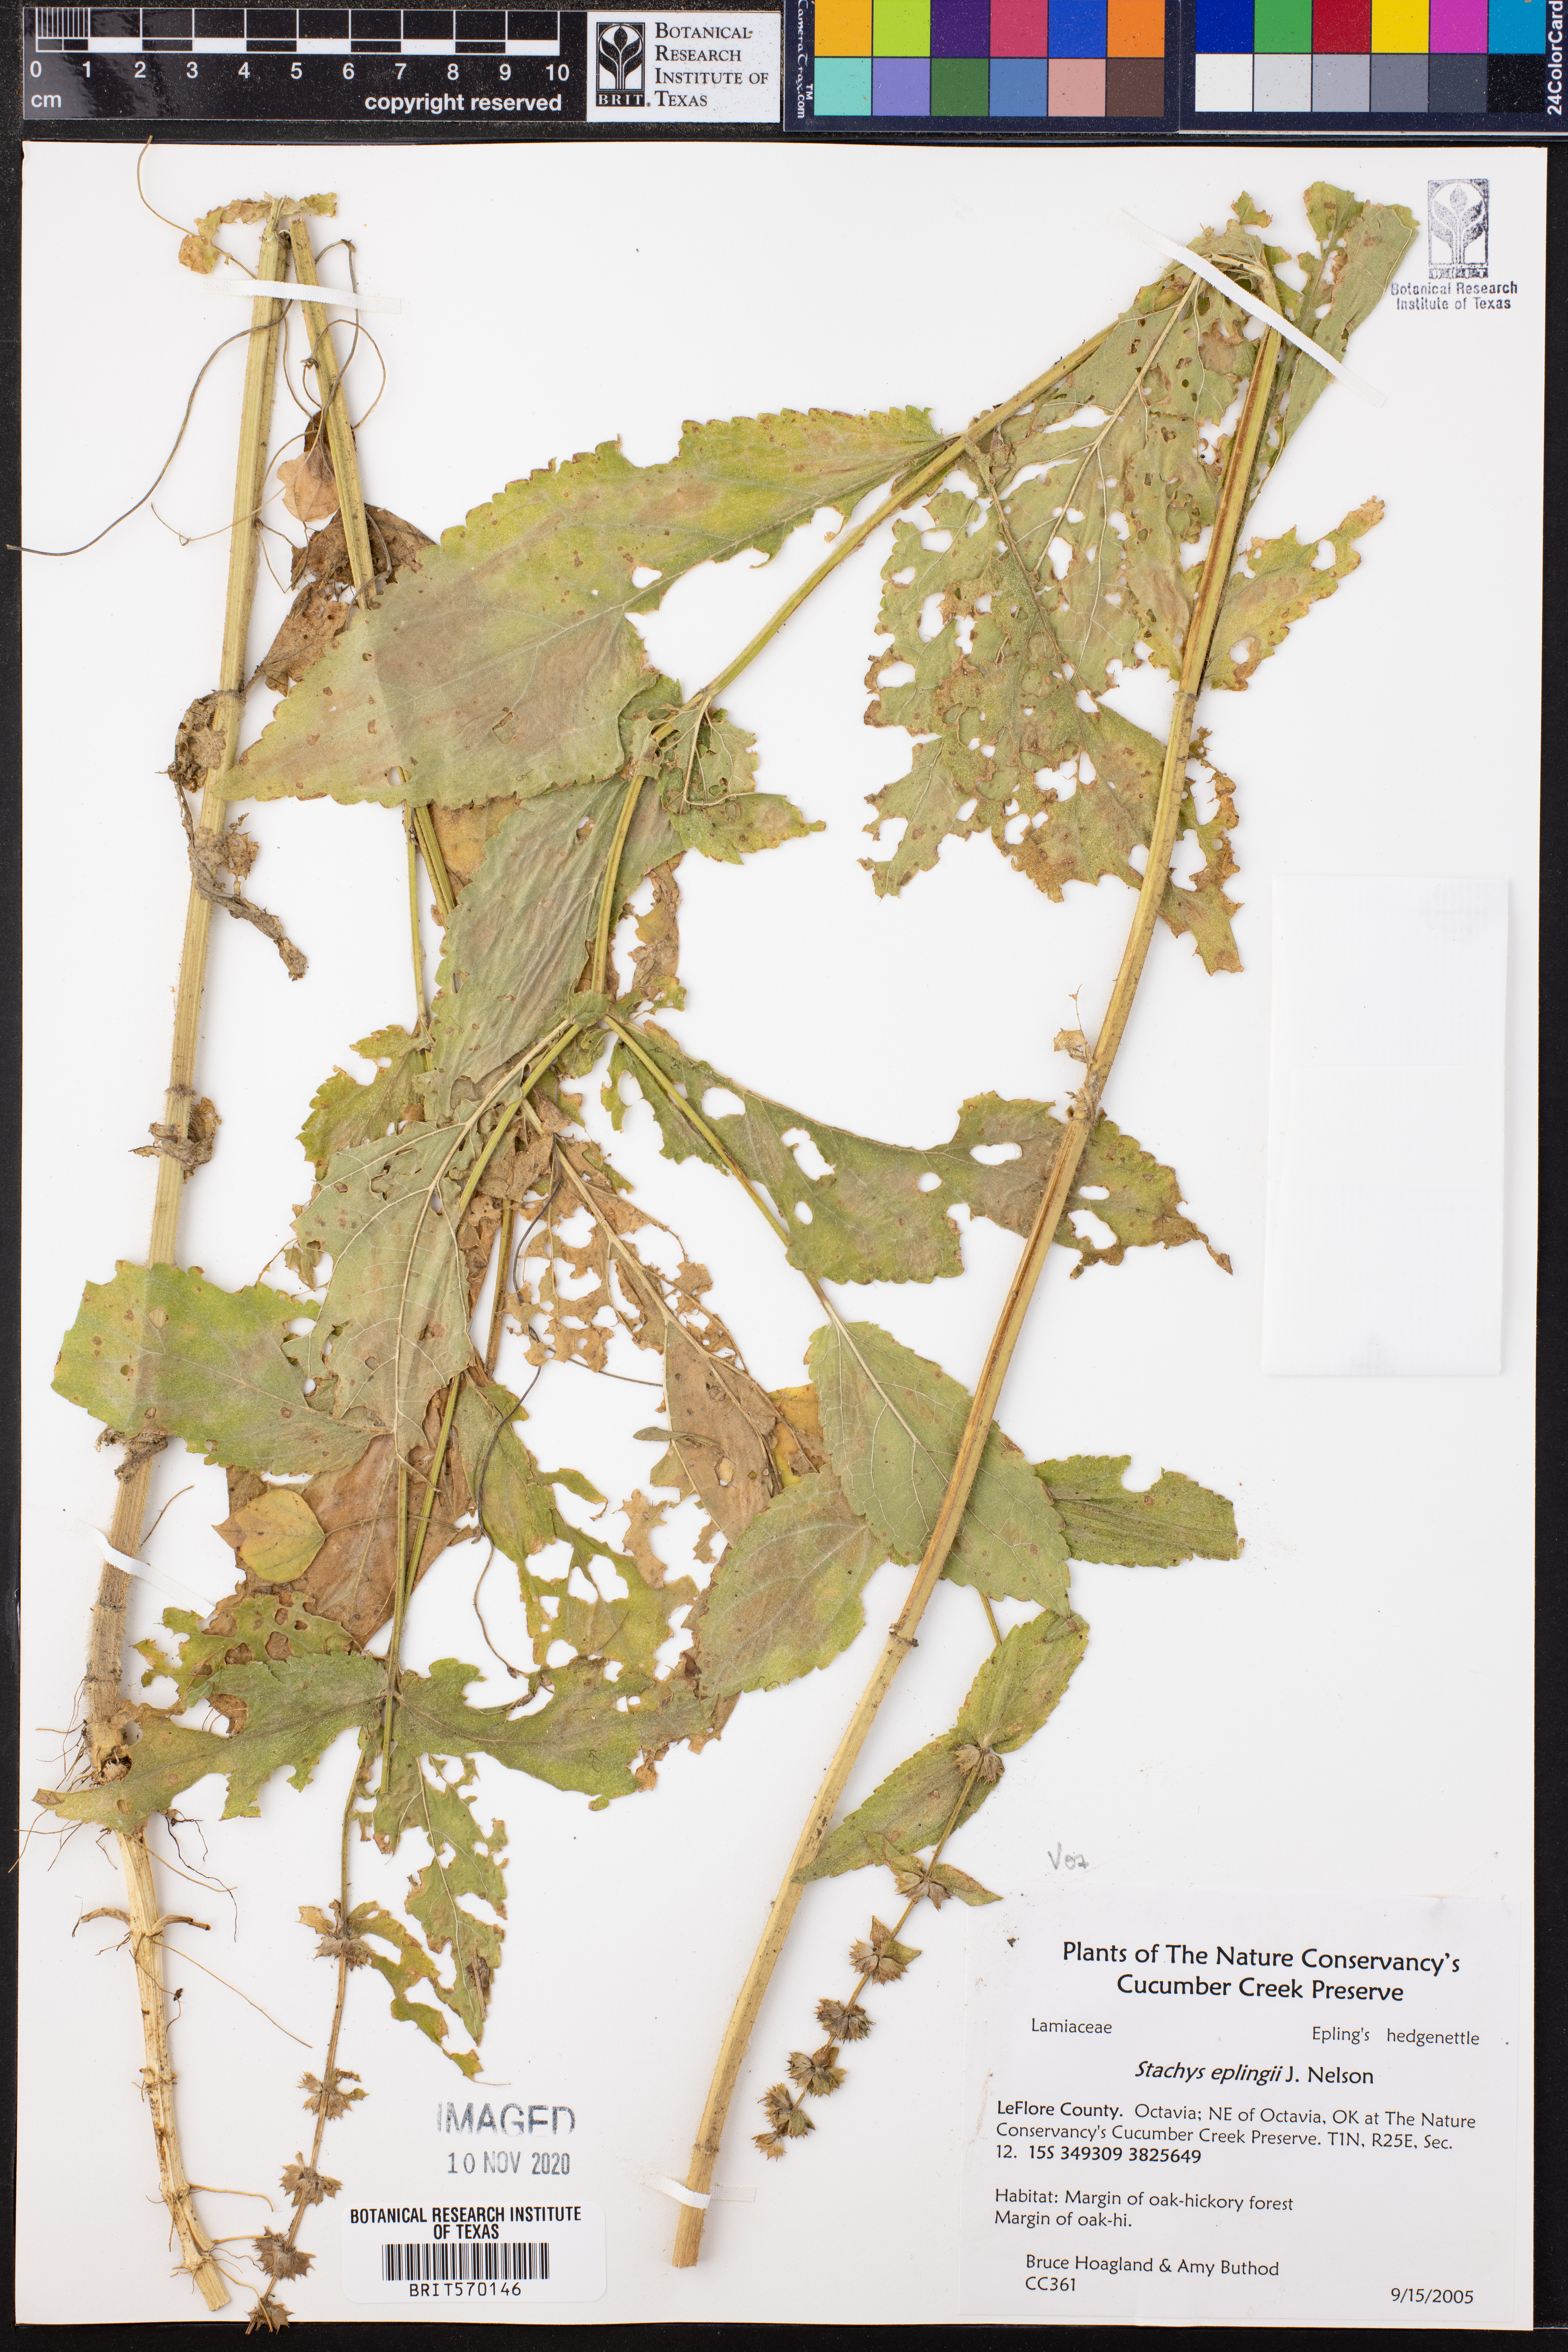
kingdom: Plantae
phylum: Tracheophyta
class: Magnoliopsida
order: Lamiales
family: Lamiaceae
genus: Stachys
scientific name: Stachys eplingii
